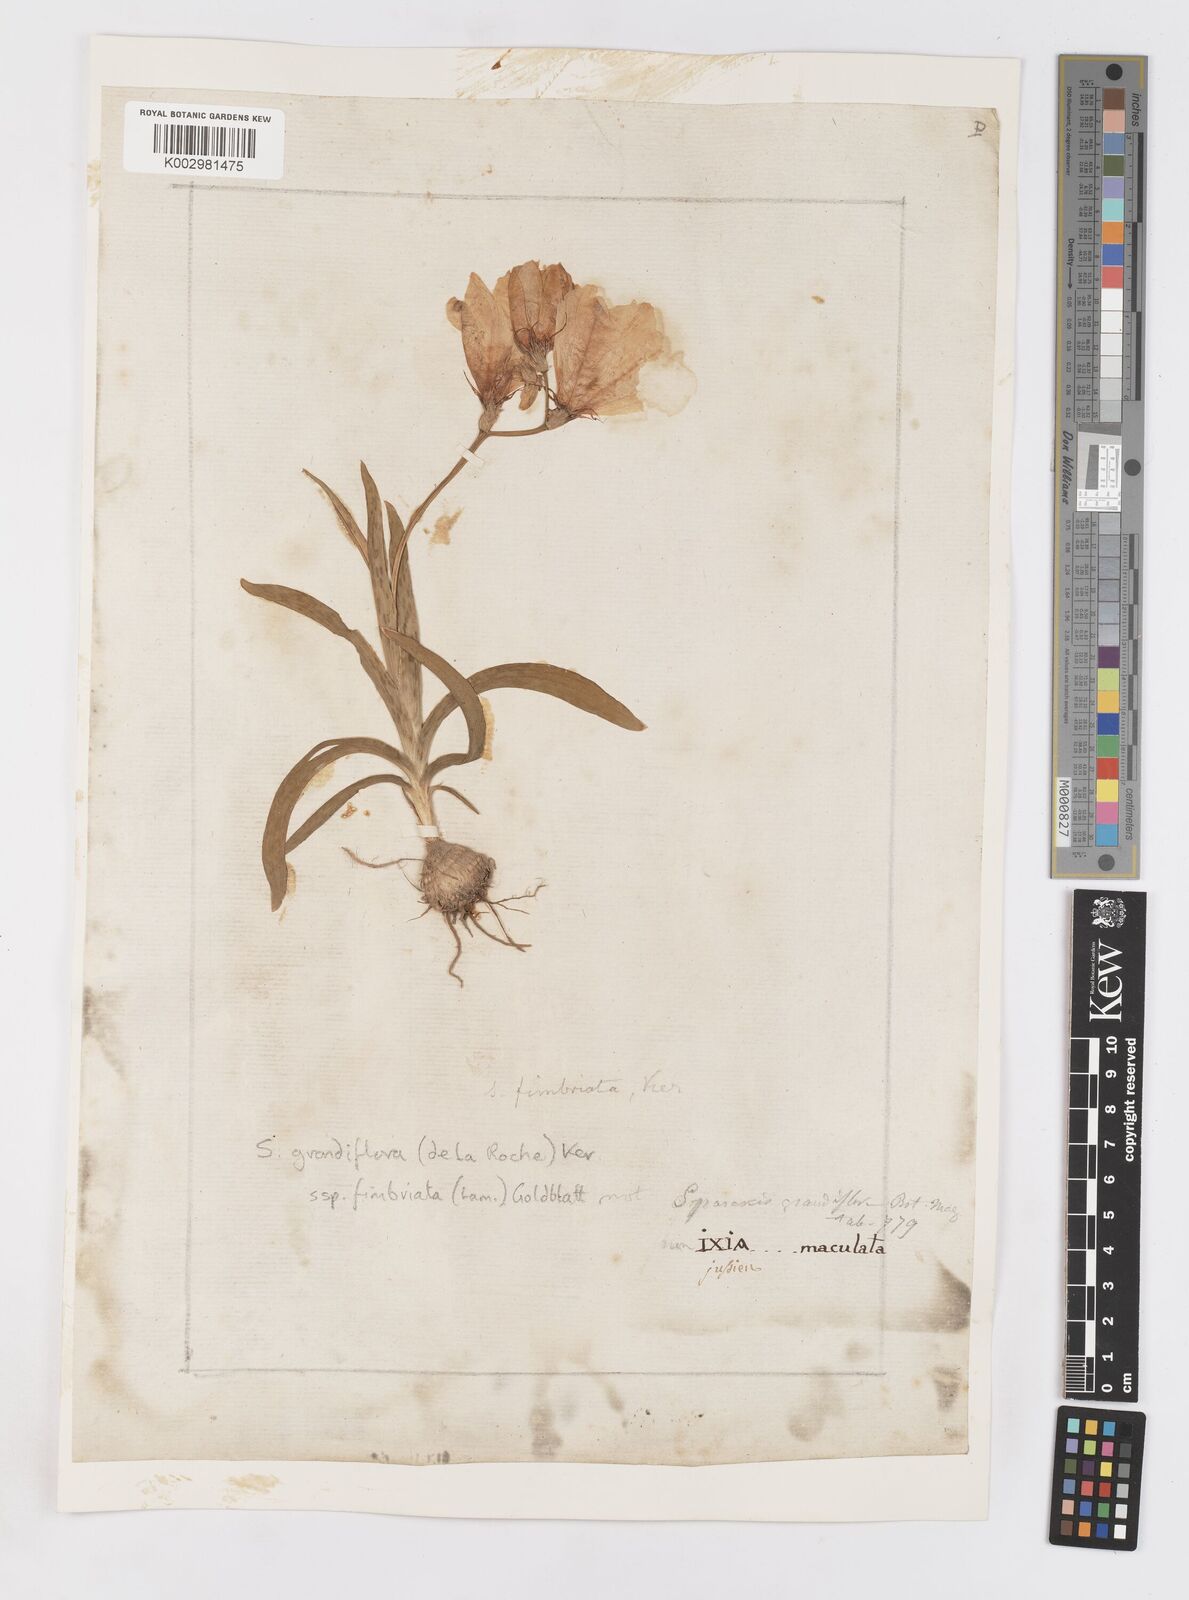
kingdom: Plantae
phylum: Tracheophyta
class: Liliopsida
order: Asparagales
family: Iridaceae
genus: Sparaxis
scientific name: Sparaxis grandiflora
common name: Plain harlequin-flower
